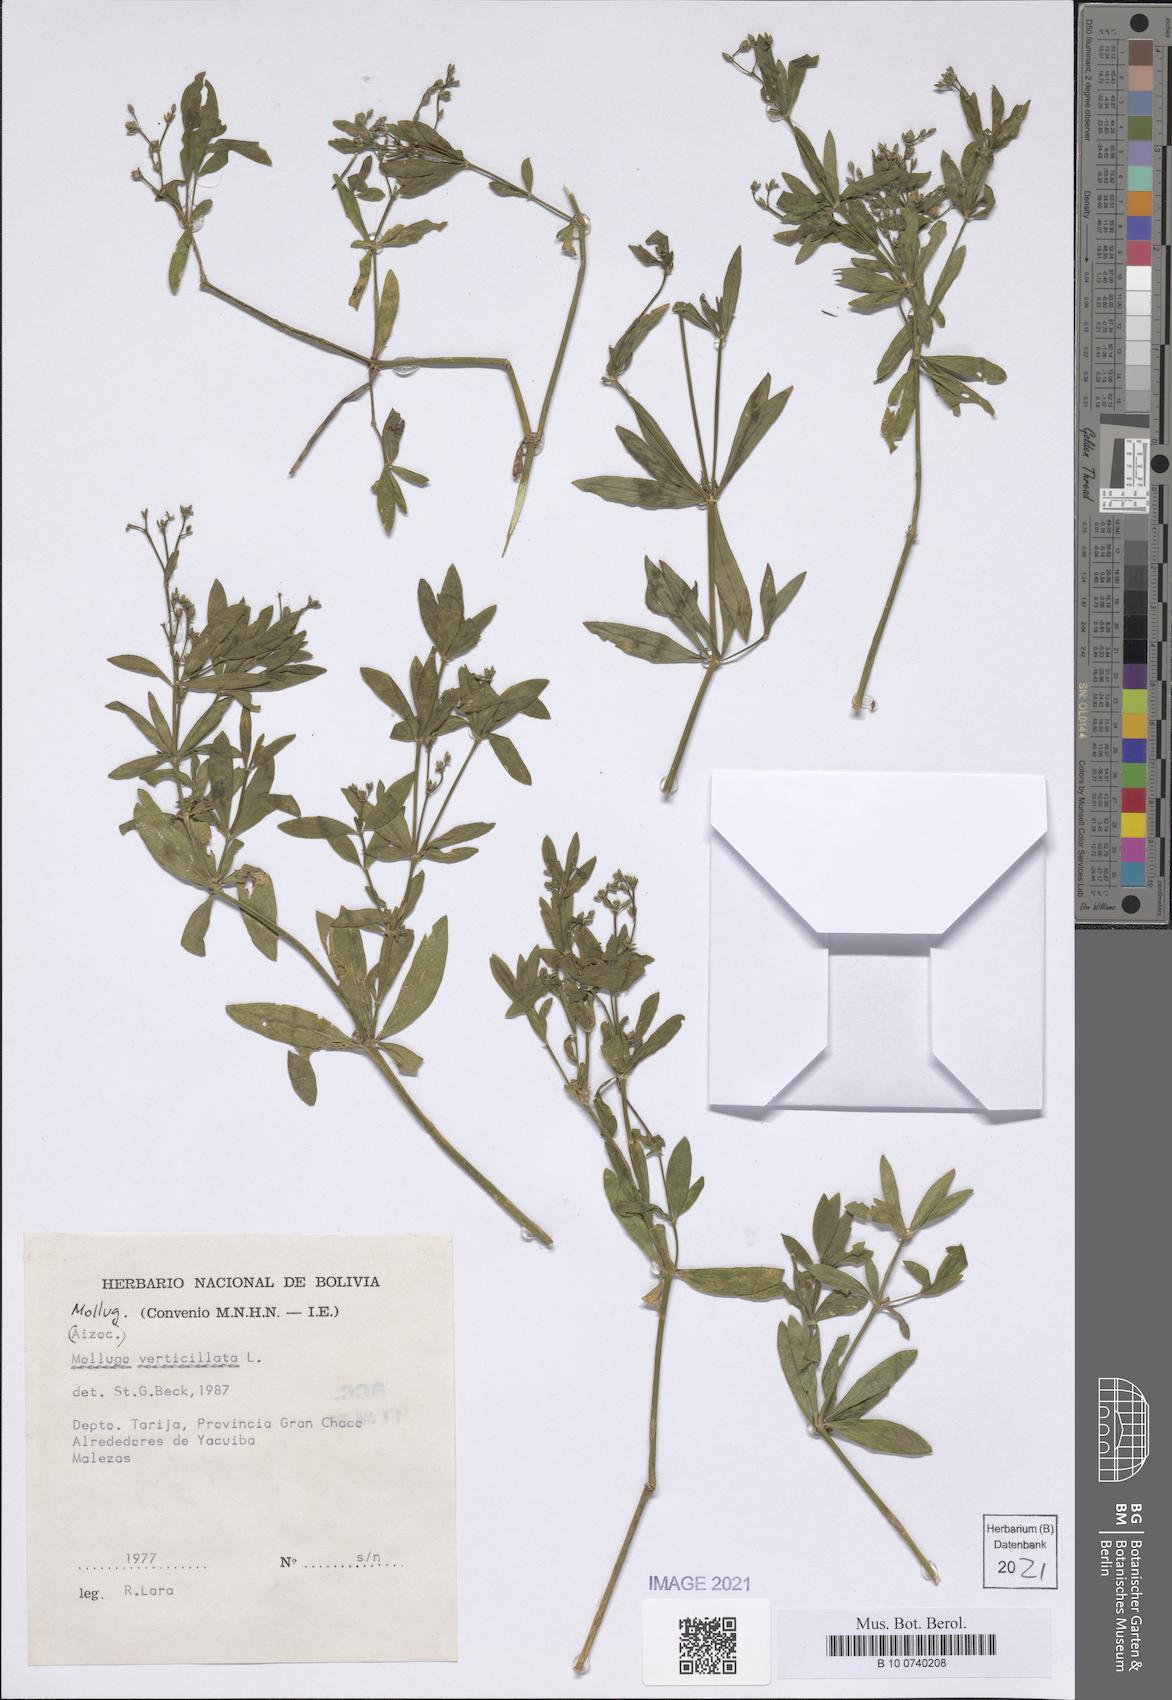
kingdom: Plantae
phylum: Tracheophyta
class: Magnoliopsida
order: Caryophyllales
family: Molluginaceae
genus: Mollugo
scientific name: Mollugo verticillata
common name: Green carpetweed
